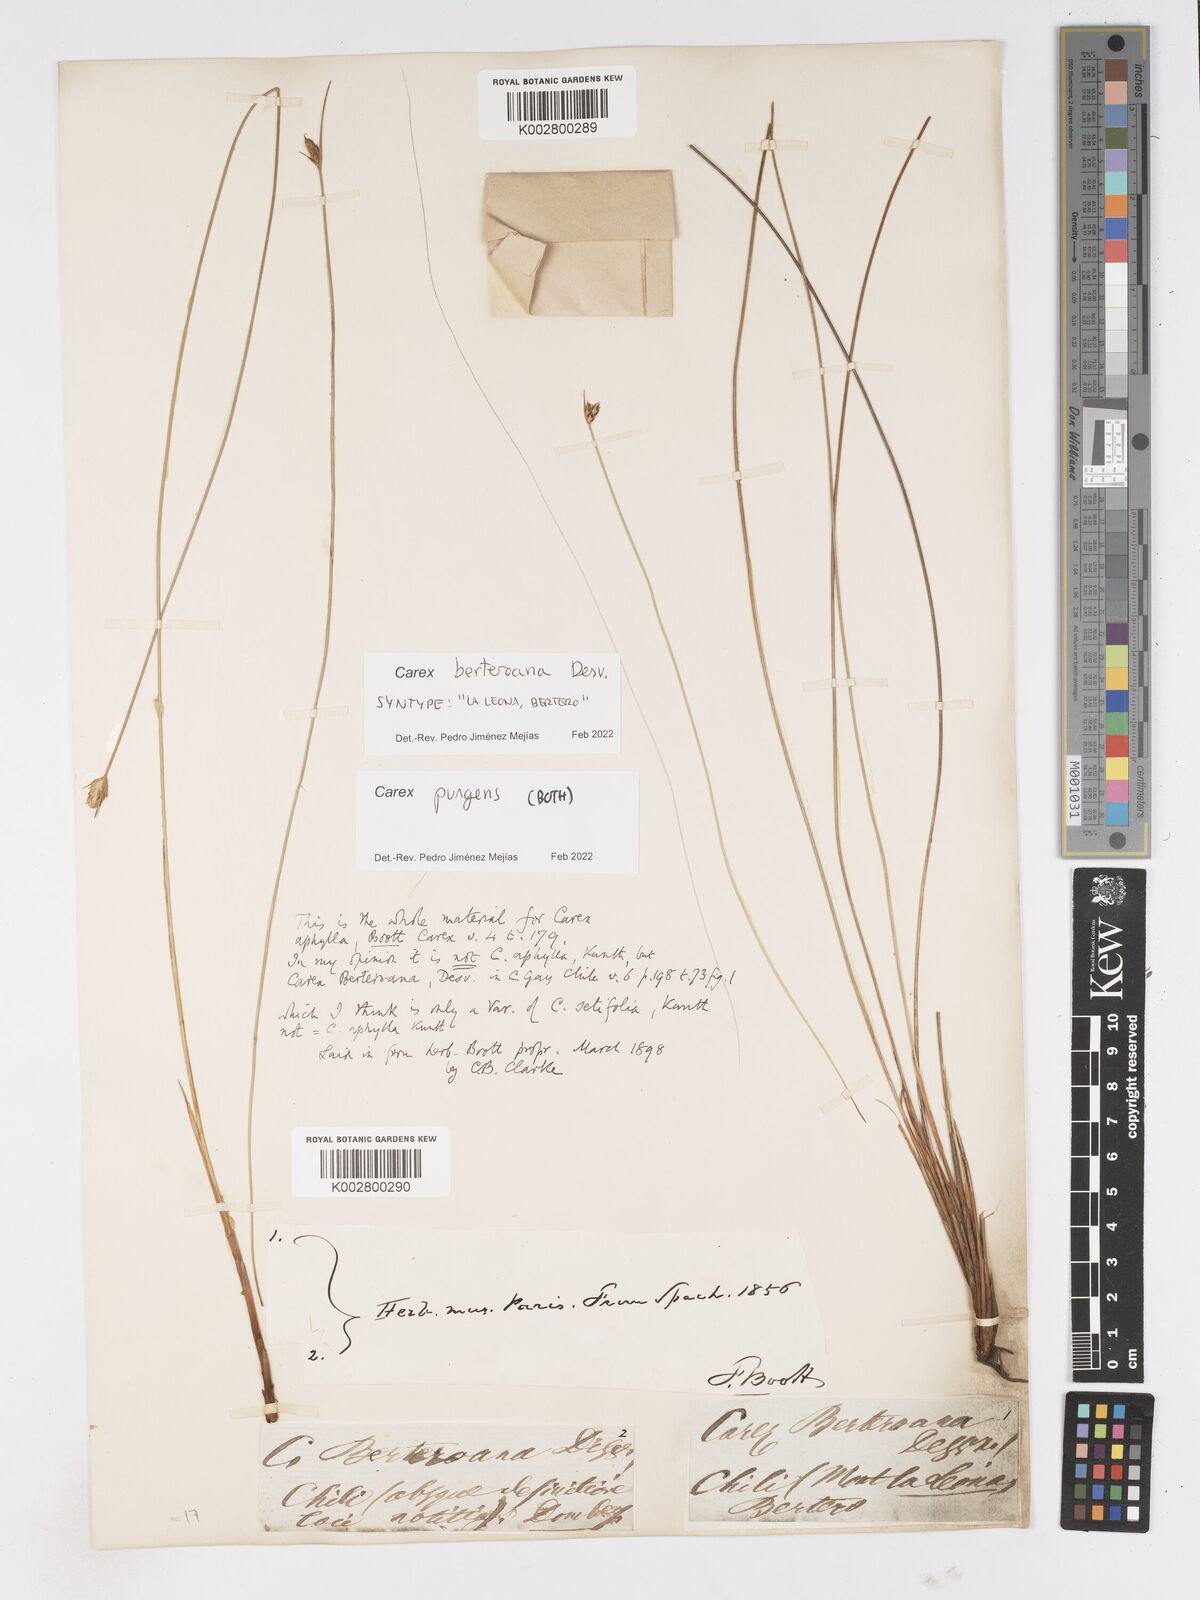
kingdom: Plantae
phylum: Tracheophyta
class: Liliopsida
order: Poales
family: Cyperaceae
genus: Carex
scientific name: Carex setifolia
